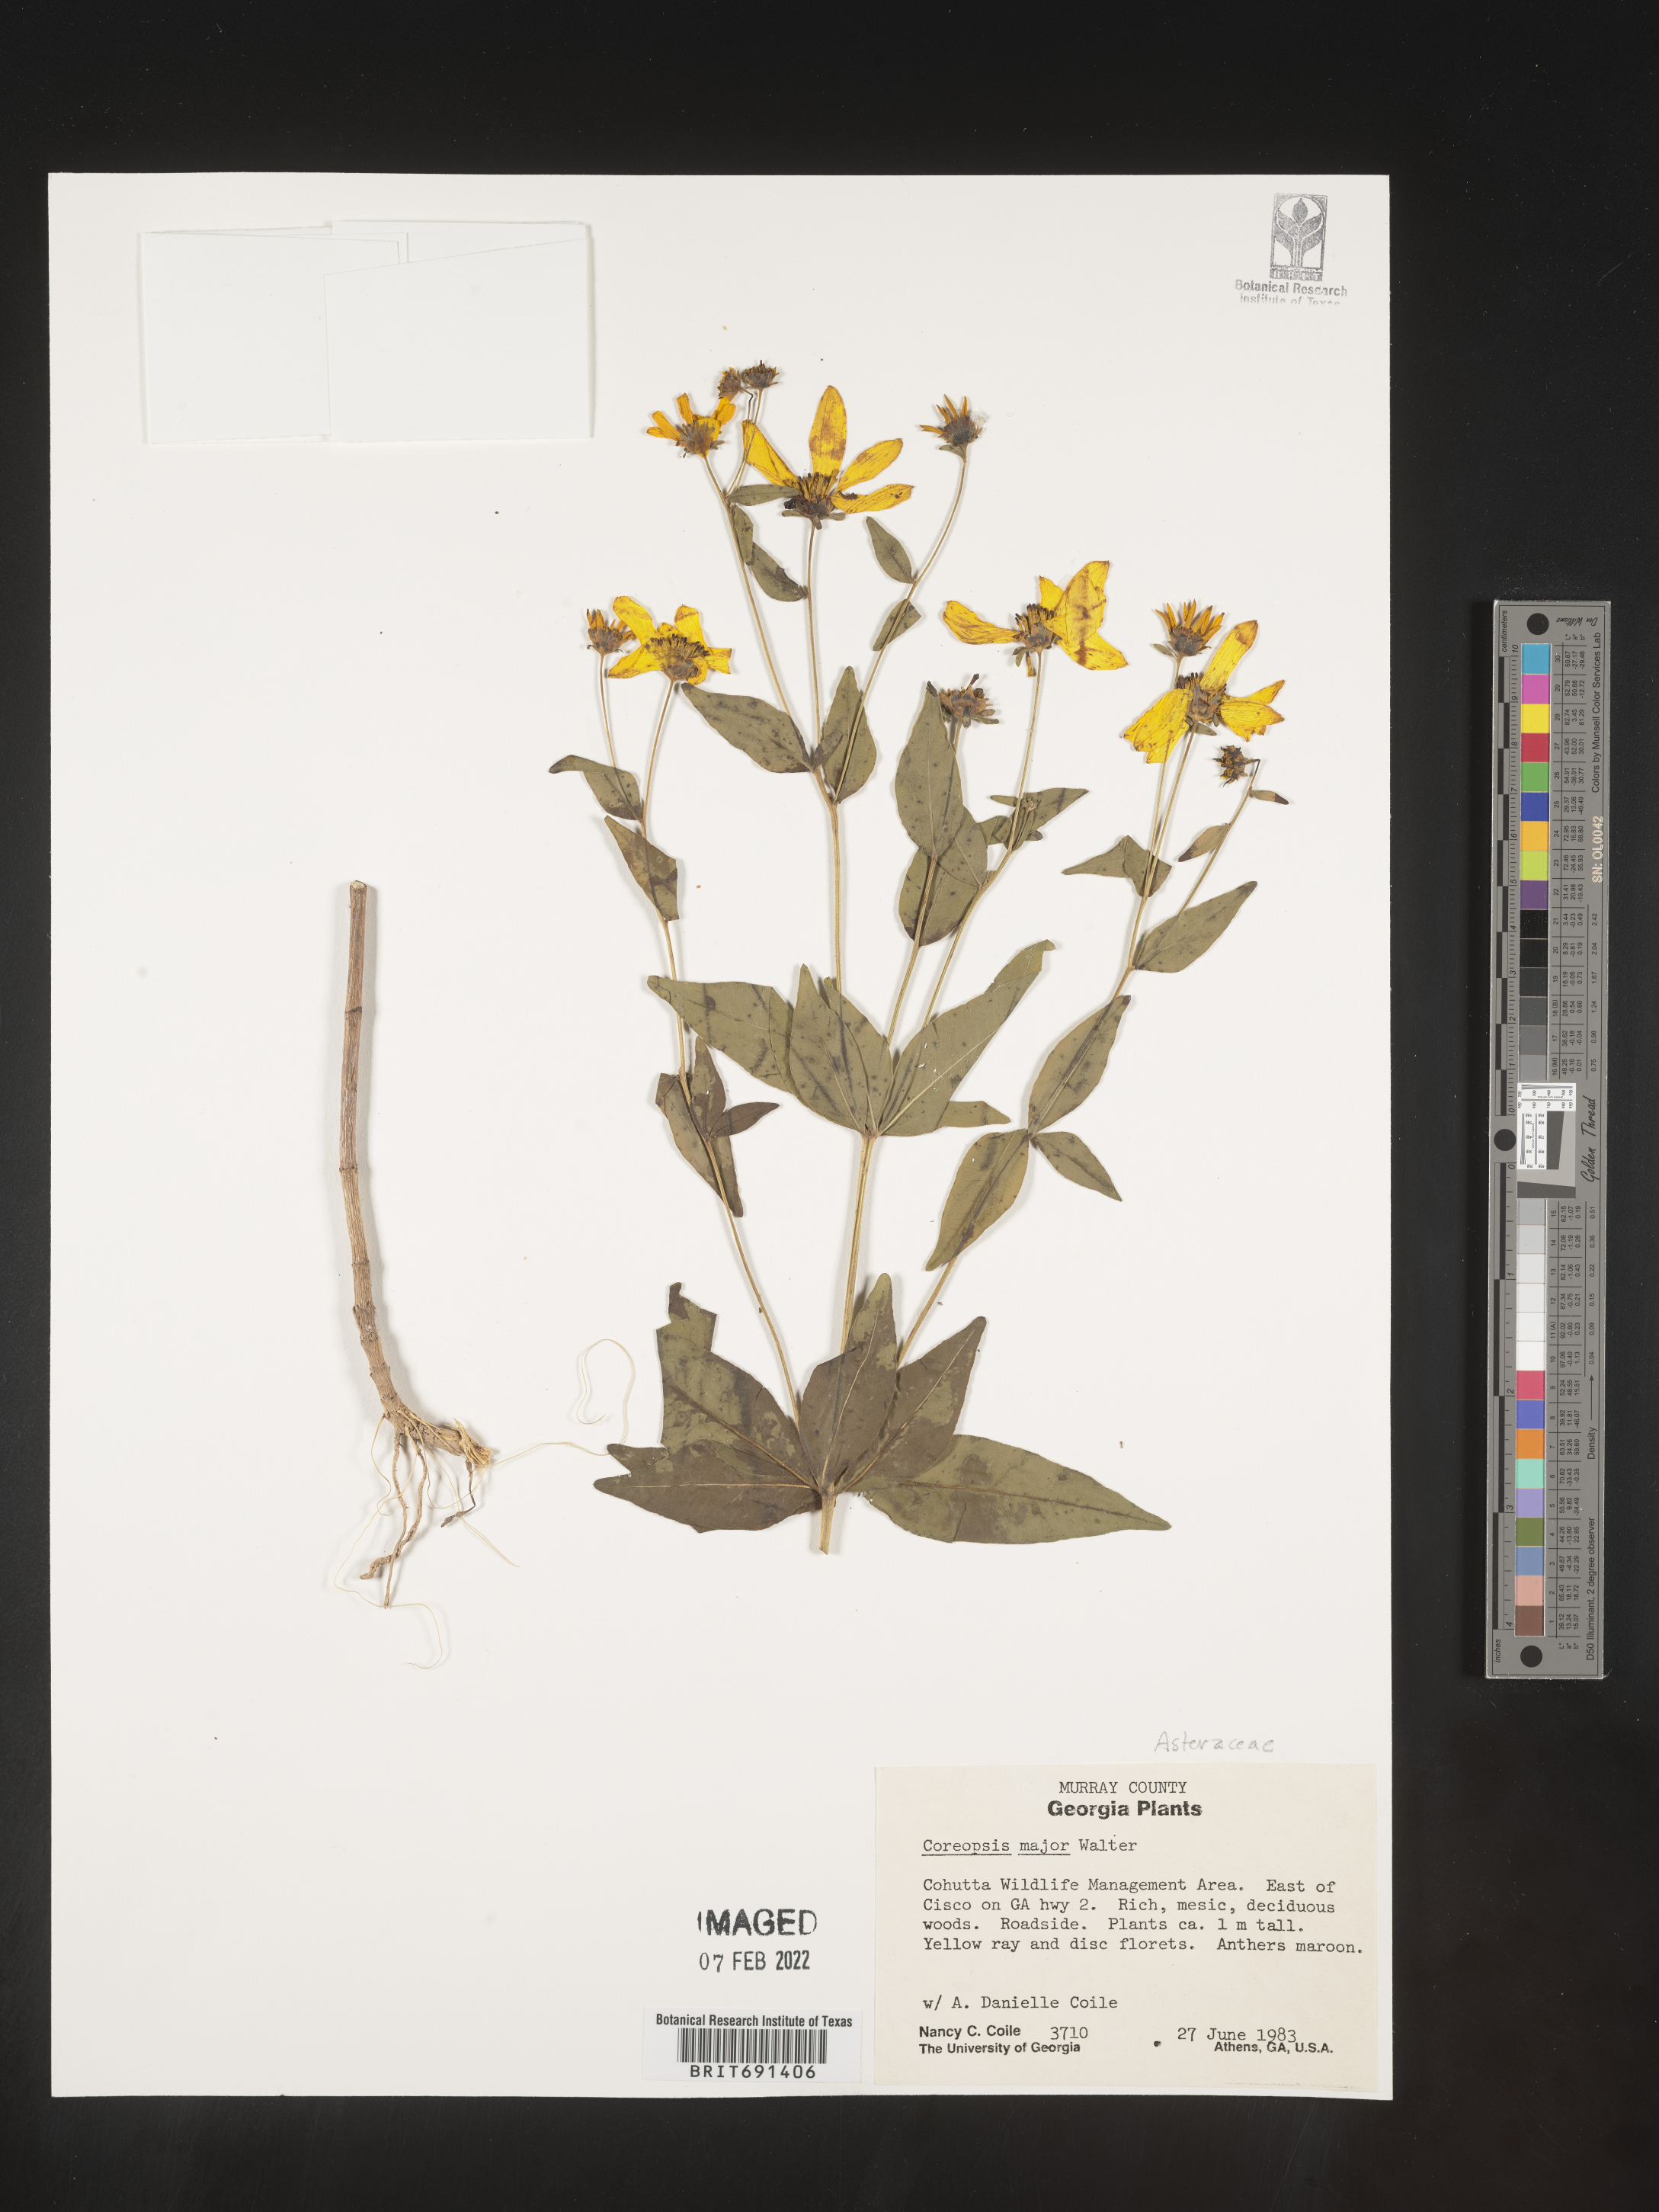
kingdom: Plantae
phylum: Tracheophyta
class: Magnoliopsida
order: Asterales
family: Asteraceae
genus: Coreopsis
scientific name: Coreopsis major
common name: Forest tickseed
